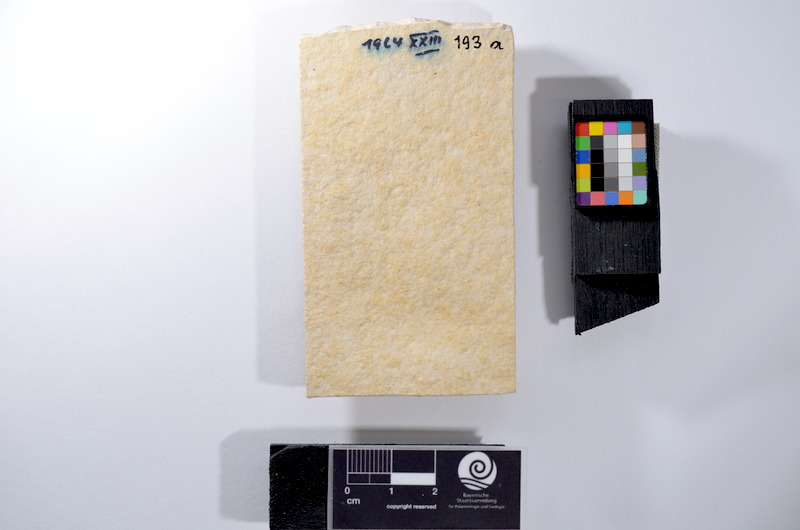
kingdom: Animalia
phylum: Chordata
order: Salmoniformes
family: Orthogonikleithridae
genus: Leptolepides
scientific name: Leptolepides
